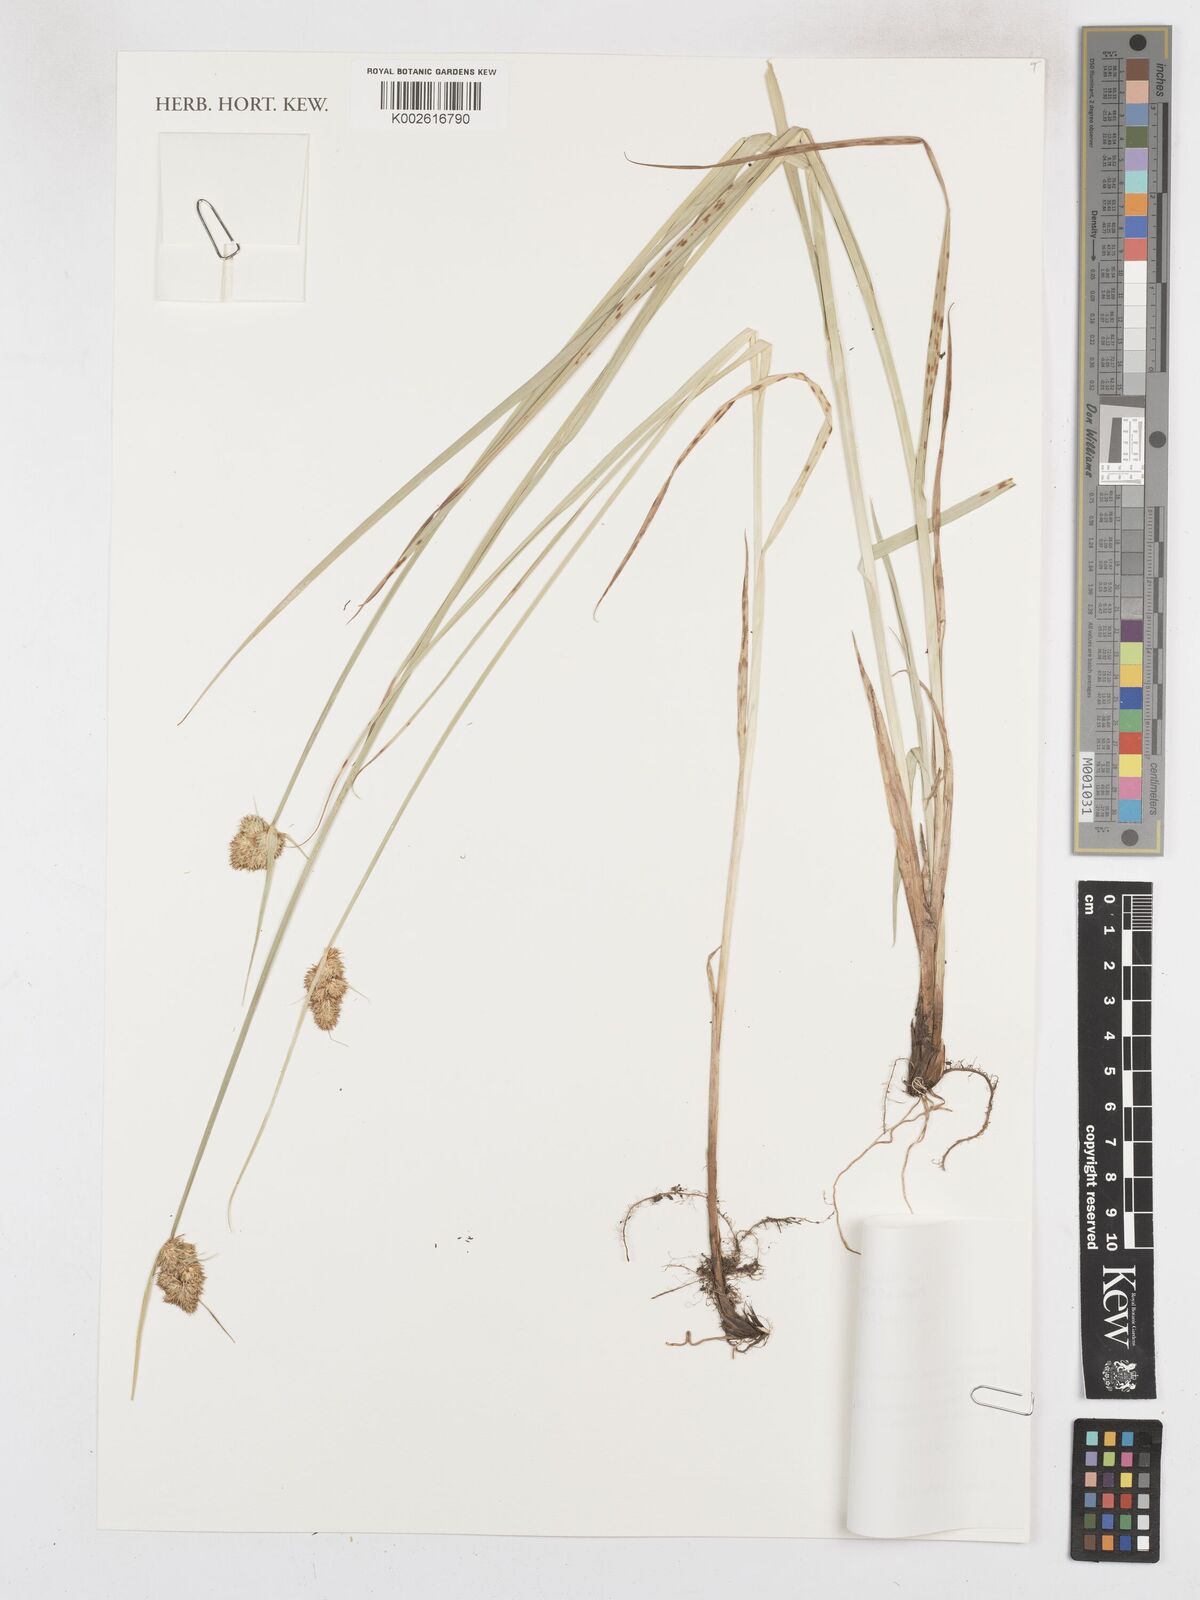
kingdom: Plantae
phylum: Tracheophyta
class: Liliopsida
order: Poales
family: Cyperaceae
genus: Carex
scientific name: Carex unilateralis
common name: Lateral sedge
